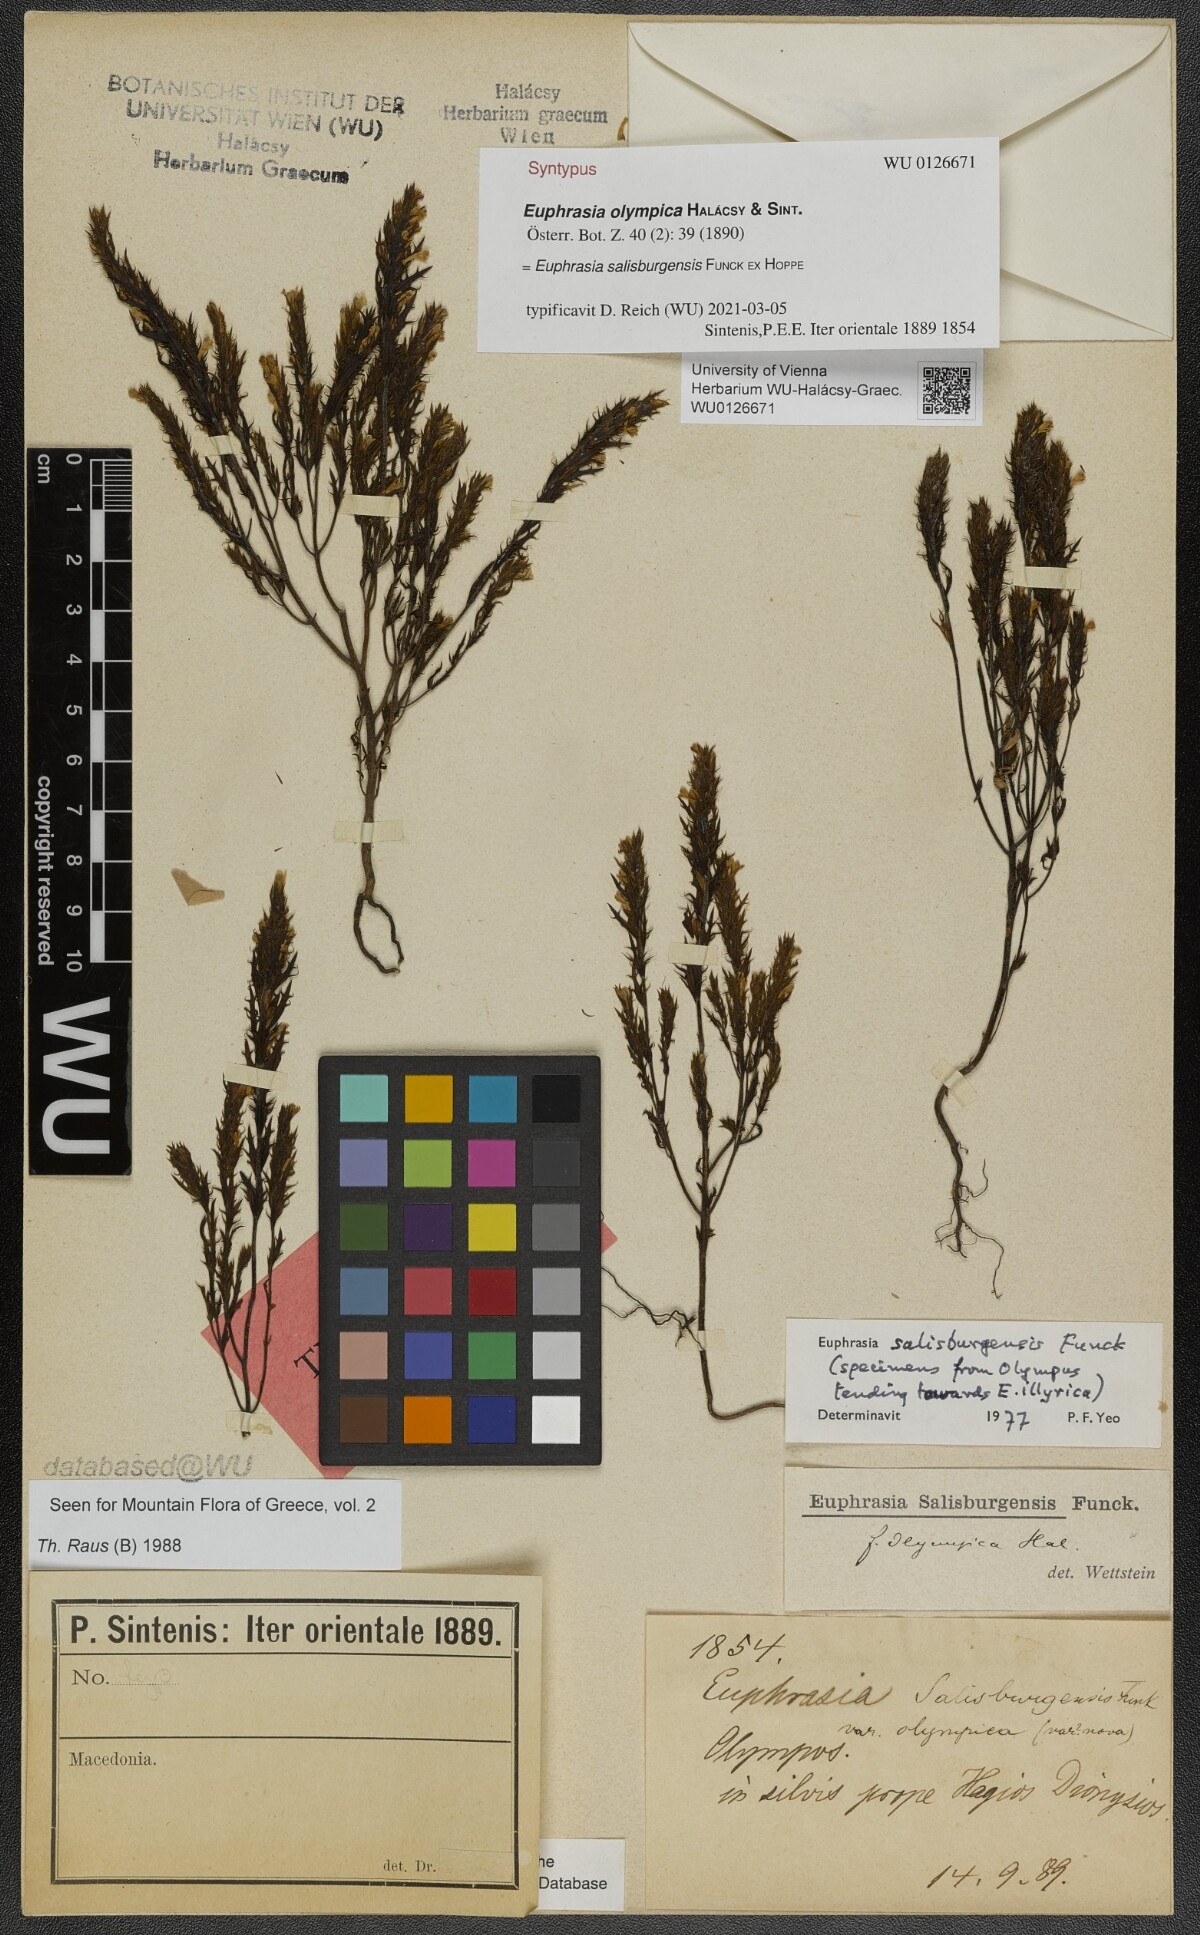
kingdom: Plantae
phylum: Tracheophyta
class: Magnoliopsida
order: Lamiales
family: Orobanchaceae
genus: Euphrasia
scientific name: Euphrasia officinalis
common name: Eyebright
